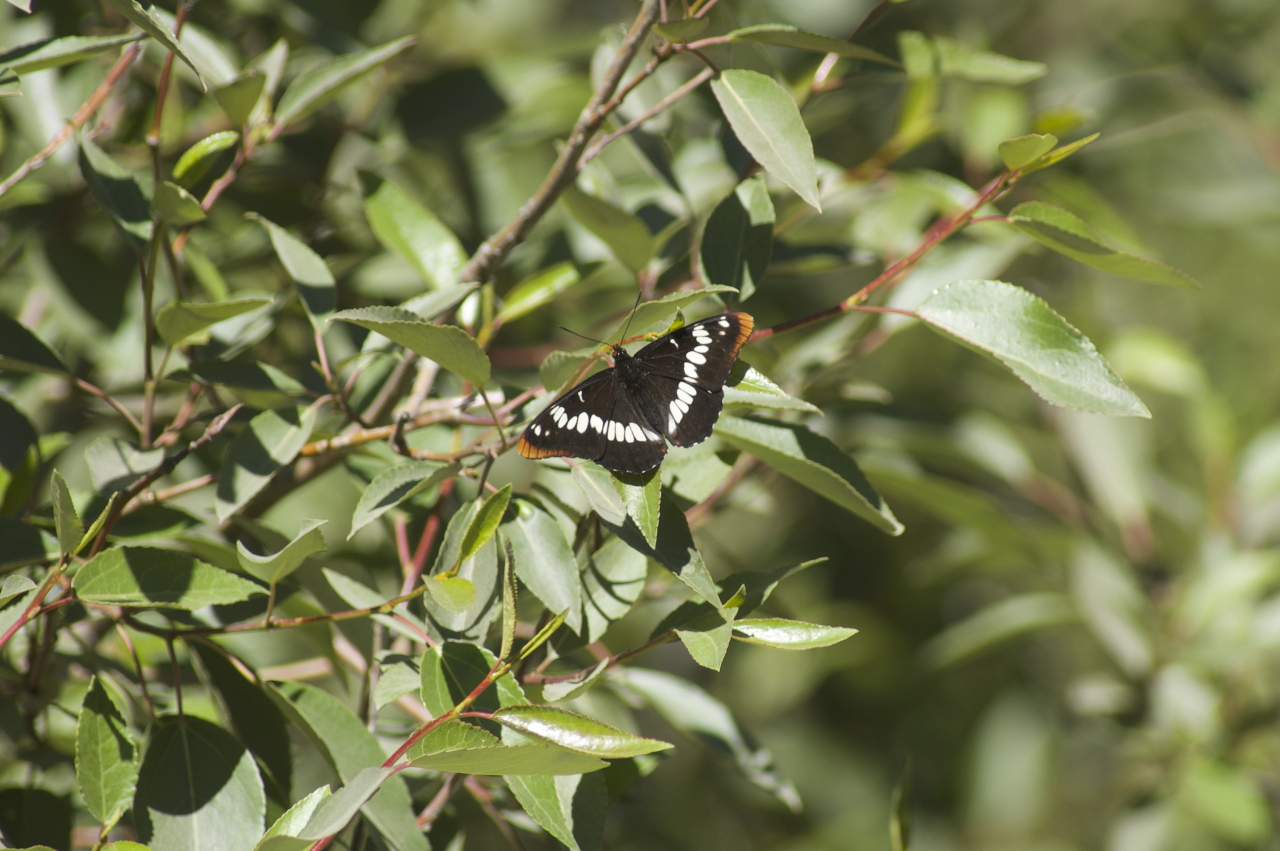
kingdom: Animalia
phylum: Arthropoda
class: Insecta
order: Lepidoptera
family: Nymphalidae
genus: Limenitis
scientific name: Limenitis lorquini
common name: Lorquin's Admiral
